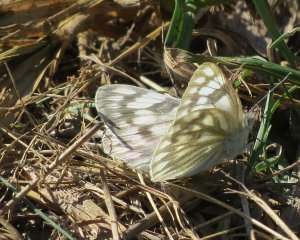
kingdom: Animalia
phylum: Arthropoda
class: Insecta
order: Lepidoptera
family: Pieridae
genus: Pontia
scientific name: Pontia protodice
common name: Checkered White
